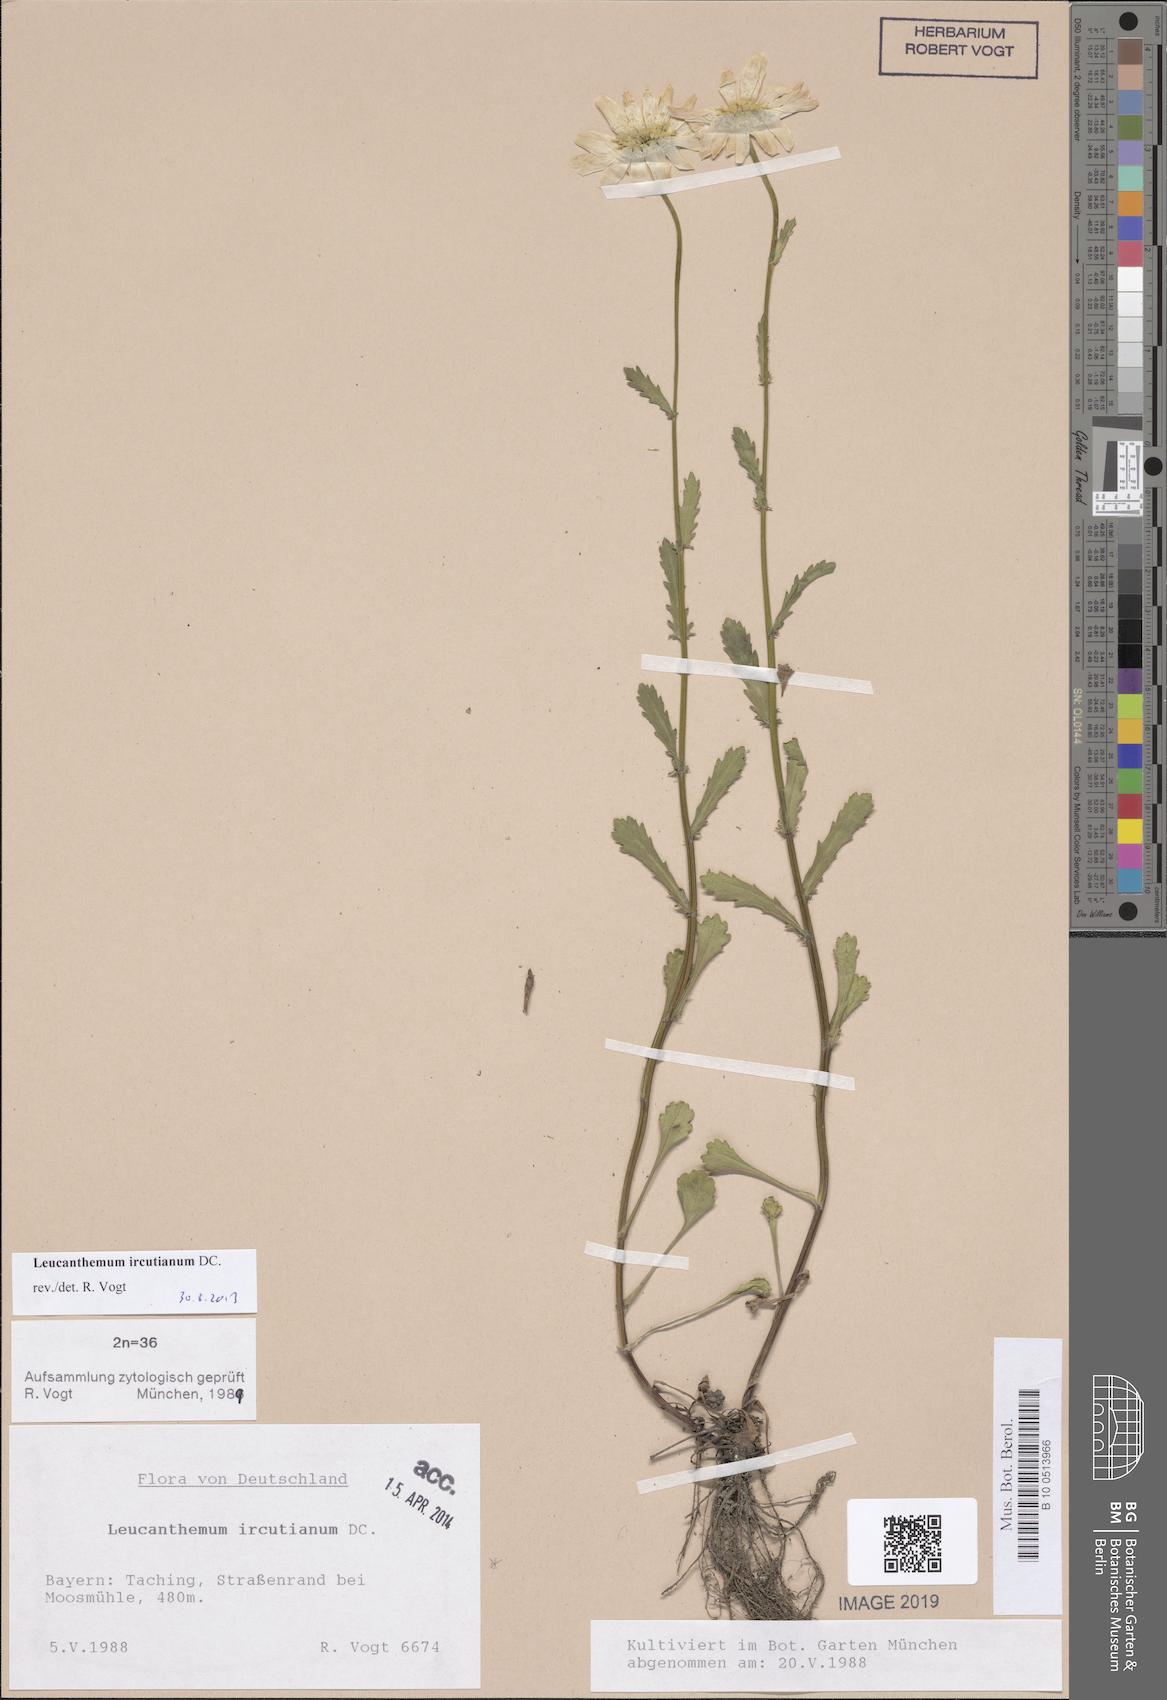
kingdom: Plantae
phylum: Tracheophyta
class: Magnoliopsida
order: Asterales
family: Asteraceae
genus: Leucanthemum
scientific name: Leucanthemum ircutianum
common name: Daisy
